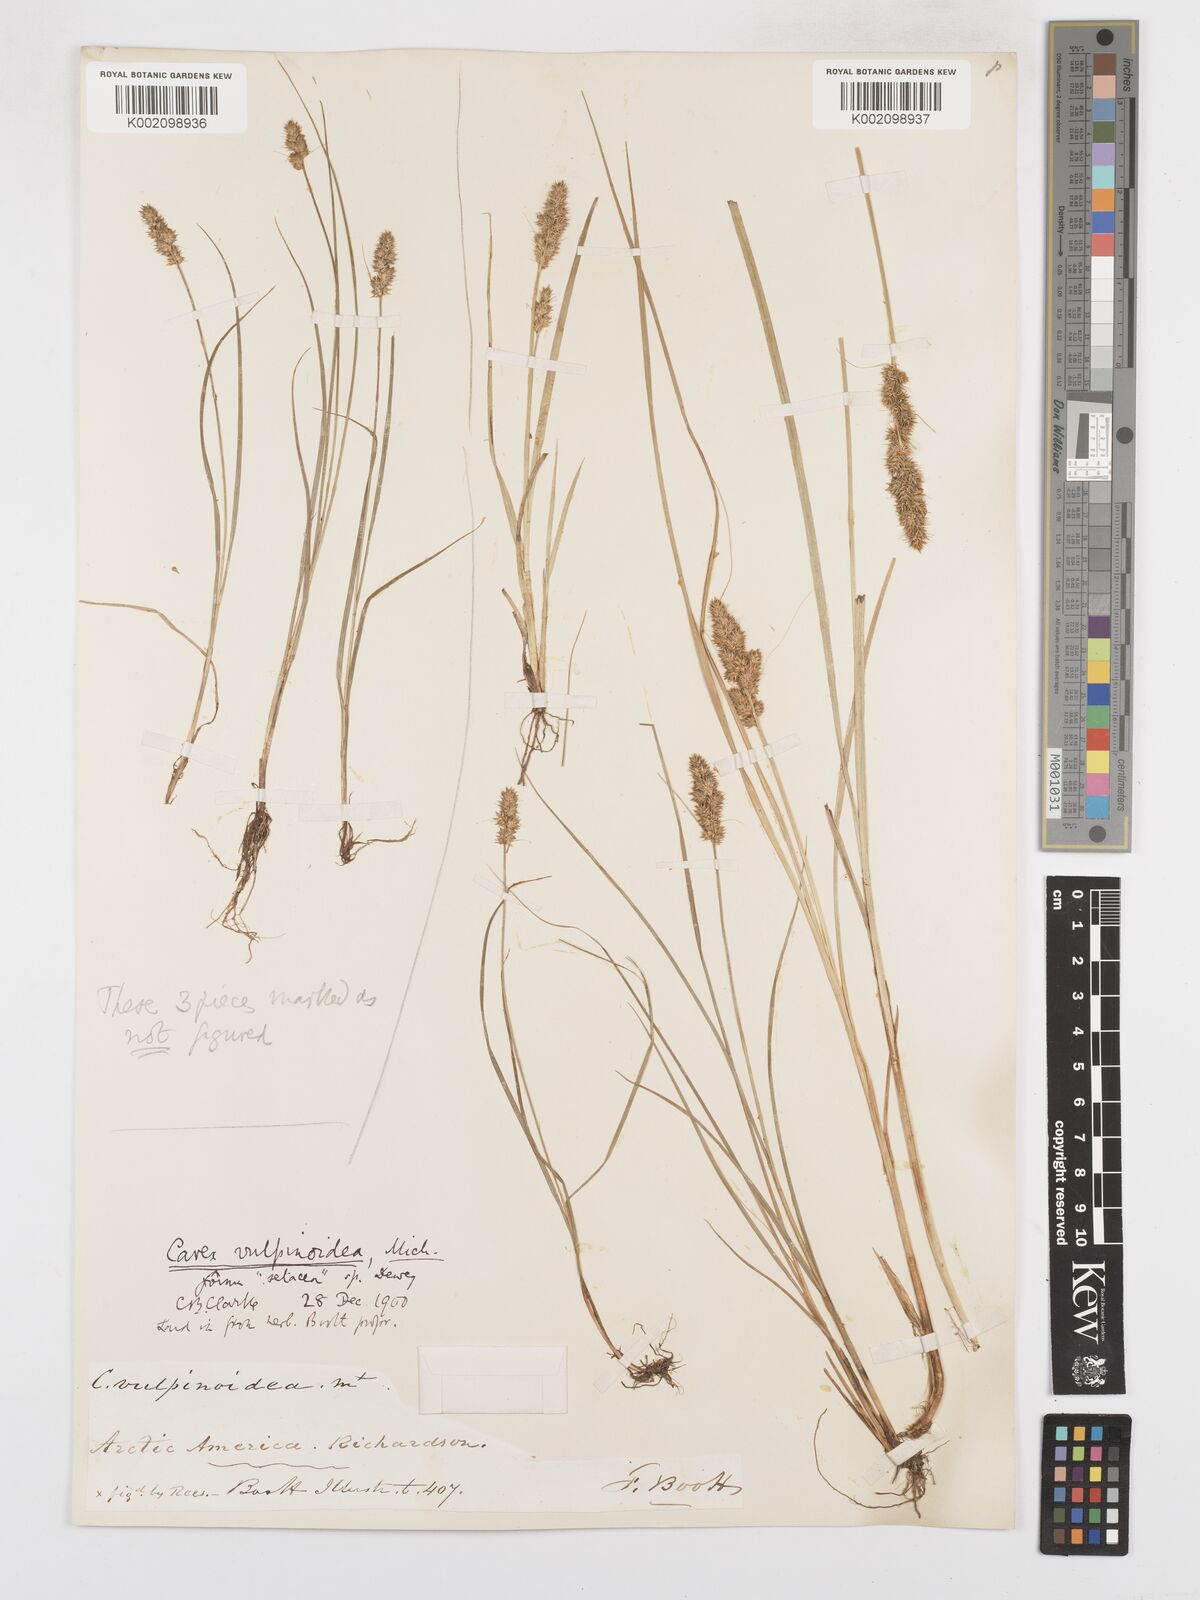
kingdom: Plantae
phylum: Tracheophyta
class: Liliopsida
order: Poales
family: Cyperaceae
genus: Carex
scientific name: Carex vulpinoidea
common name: American fox-sedge
